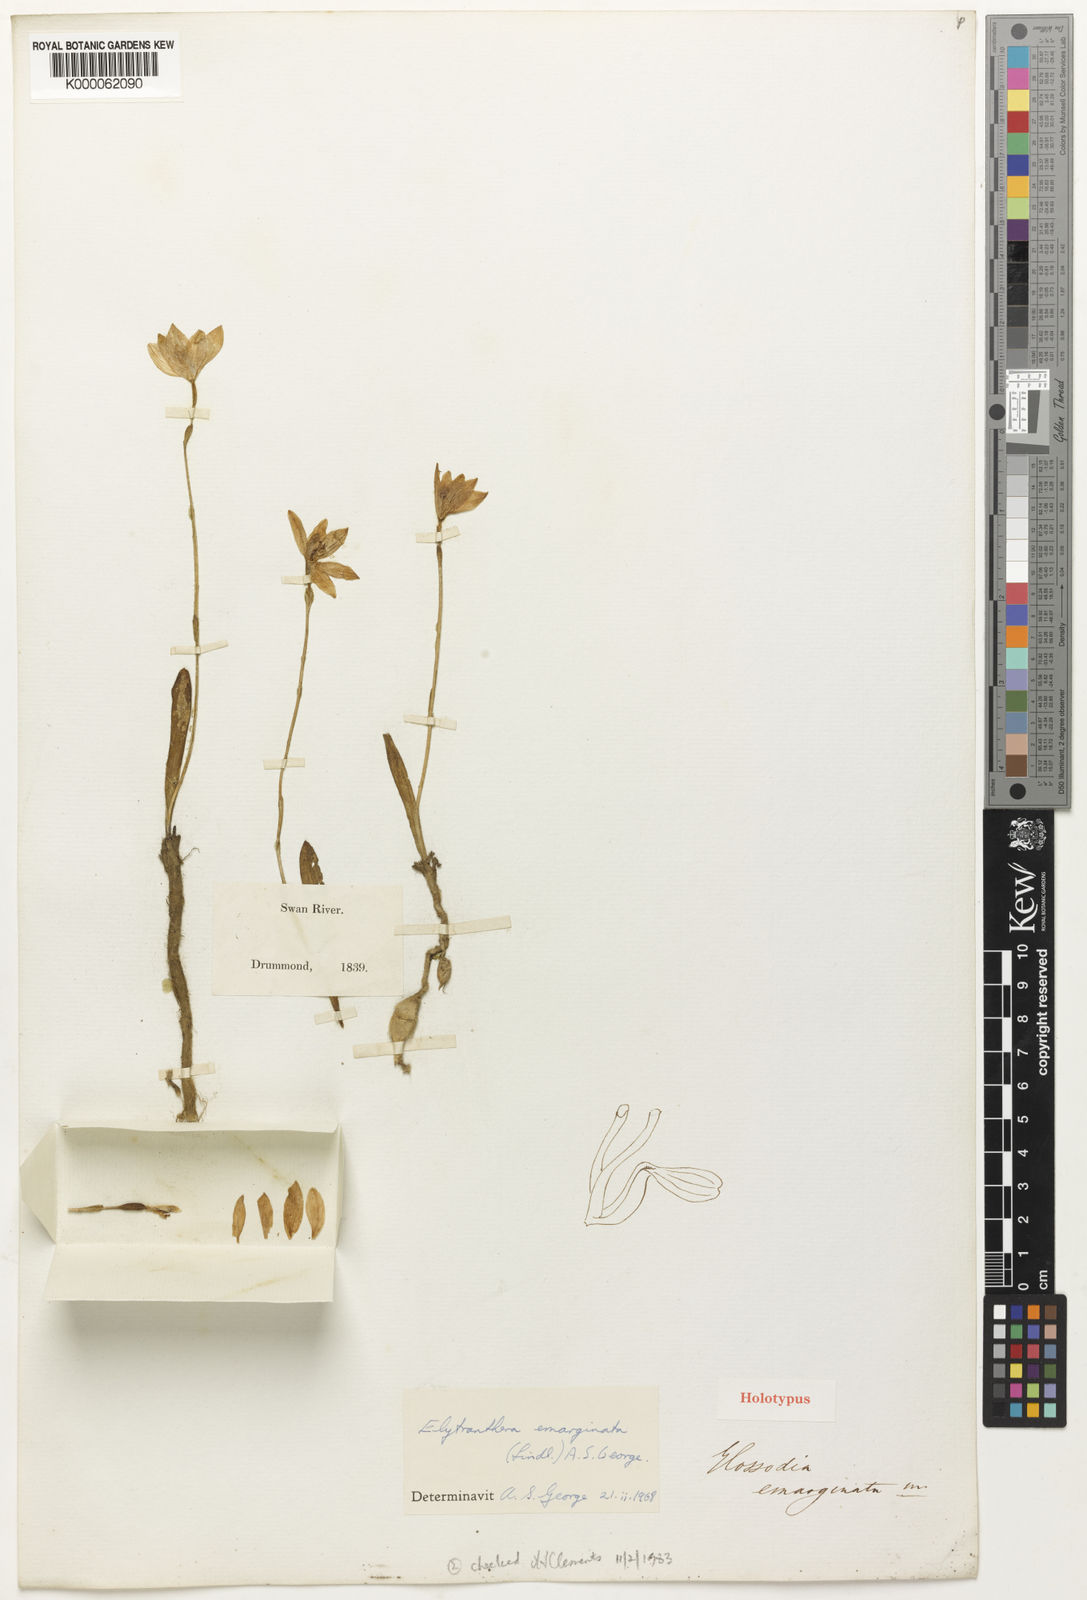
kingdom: Plantae
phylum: Tracheophyta
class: Liliopsida
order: Asparagales
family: Orchidaceae
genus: Caladenia
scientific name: Caladenia emarginata
